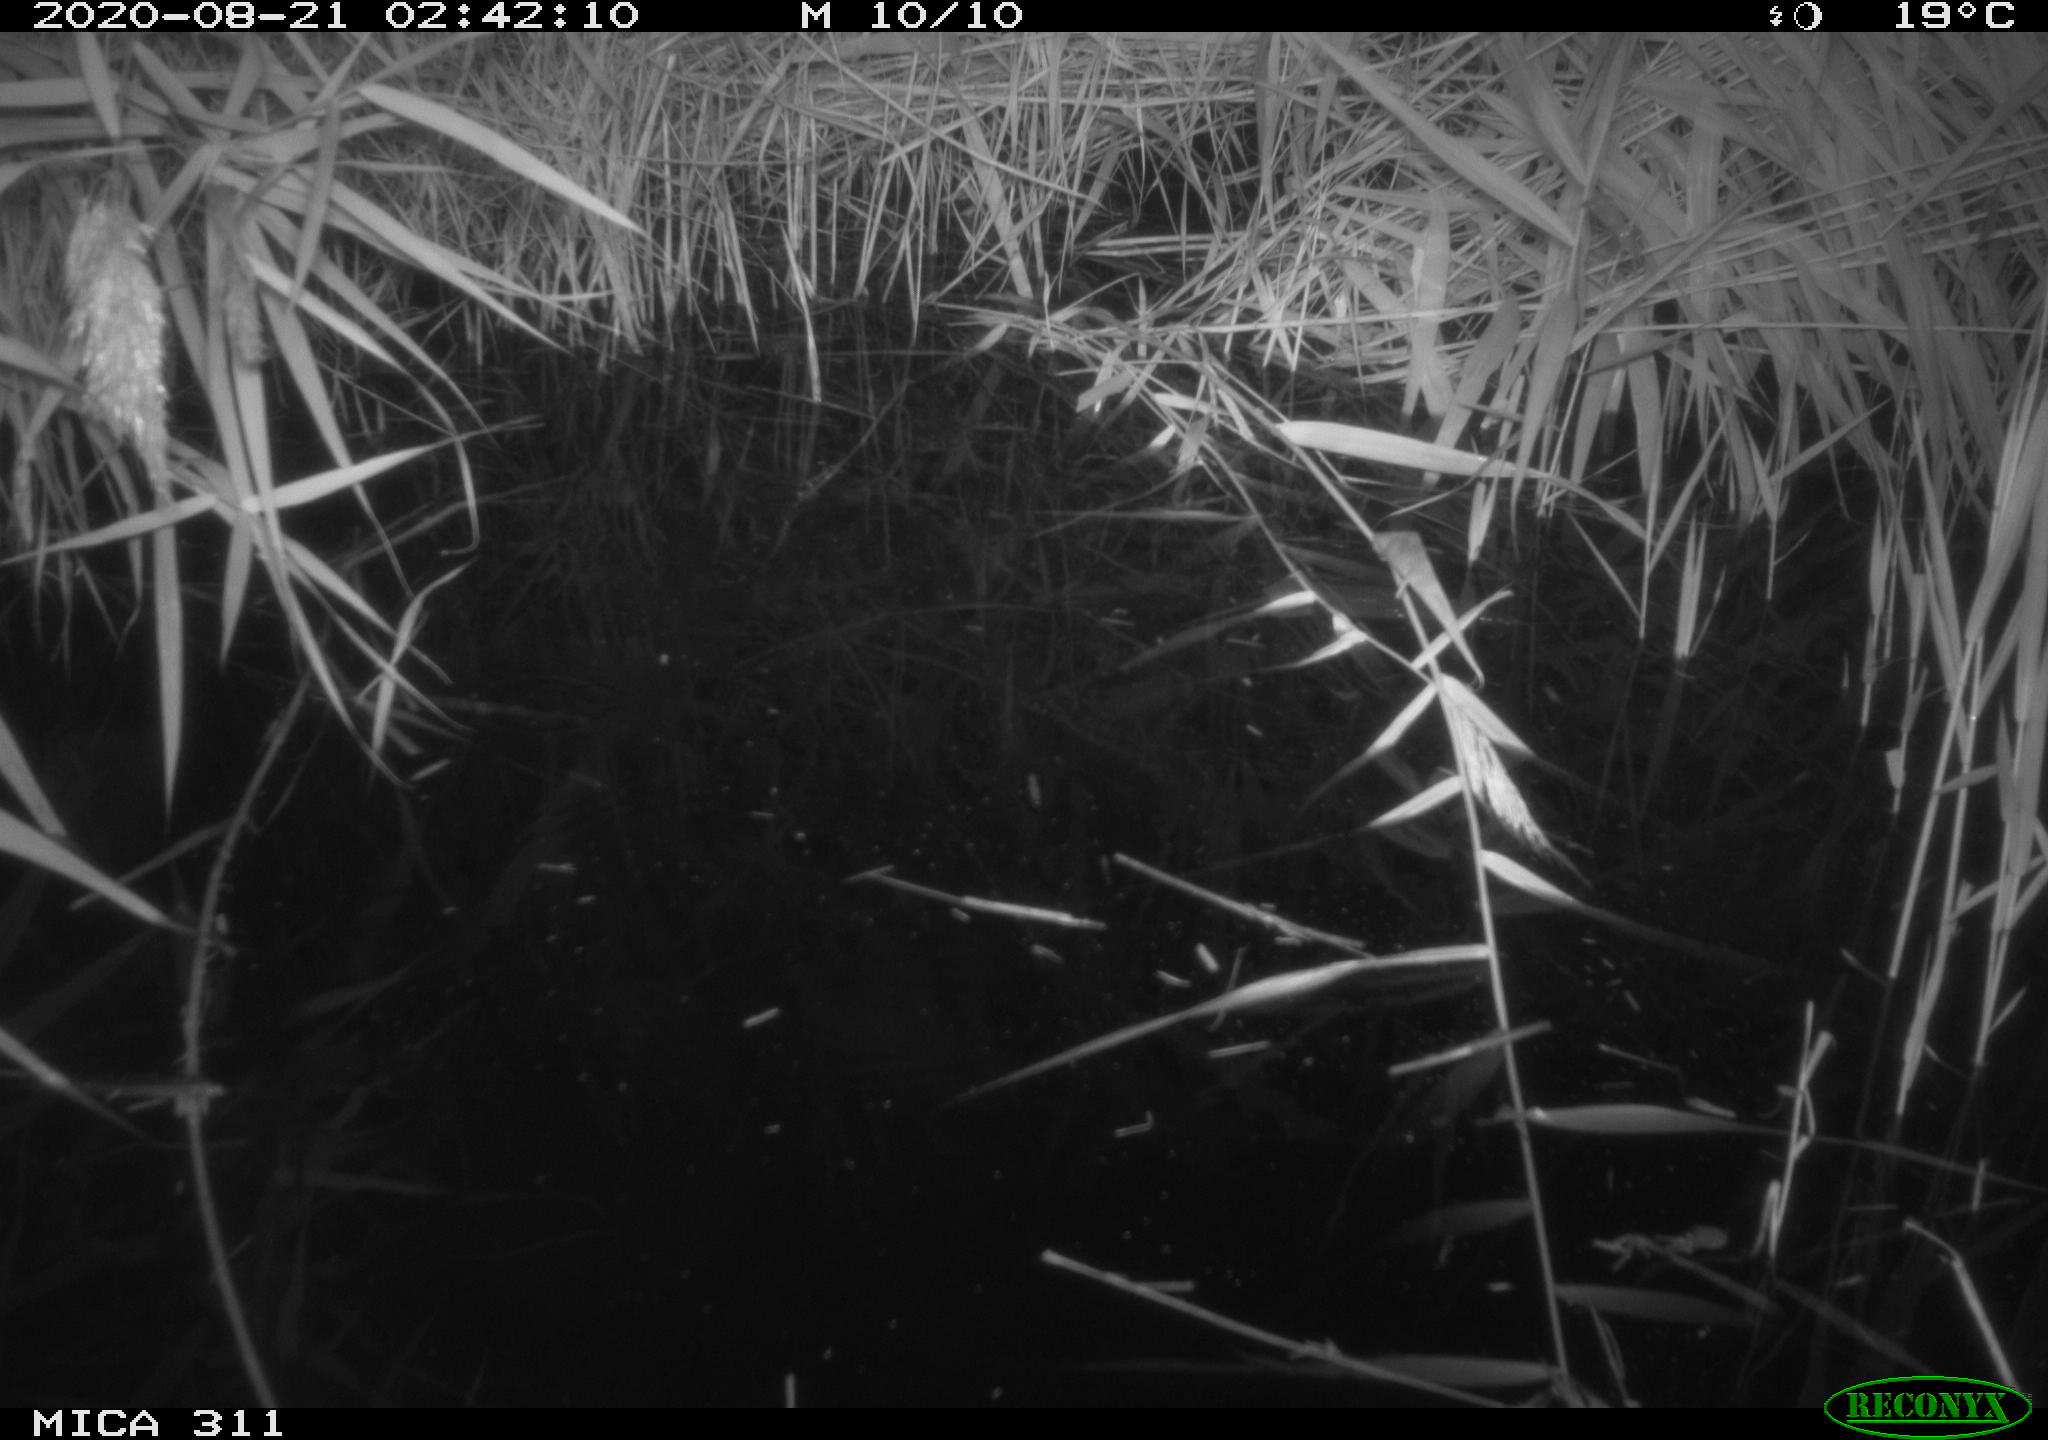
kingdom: Animalia
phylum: Chordata
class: Mammalia
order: Rodentia
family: Muridae
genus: Rattus
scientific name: Rattus norvegicus
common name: Brown rat
